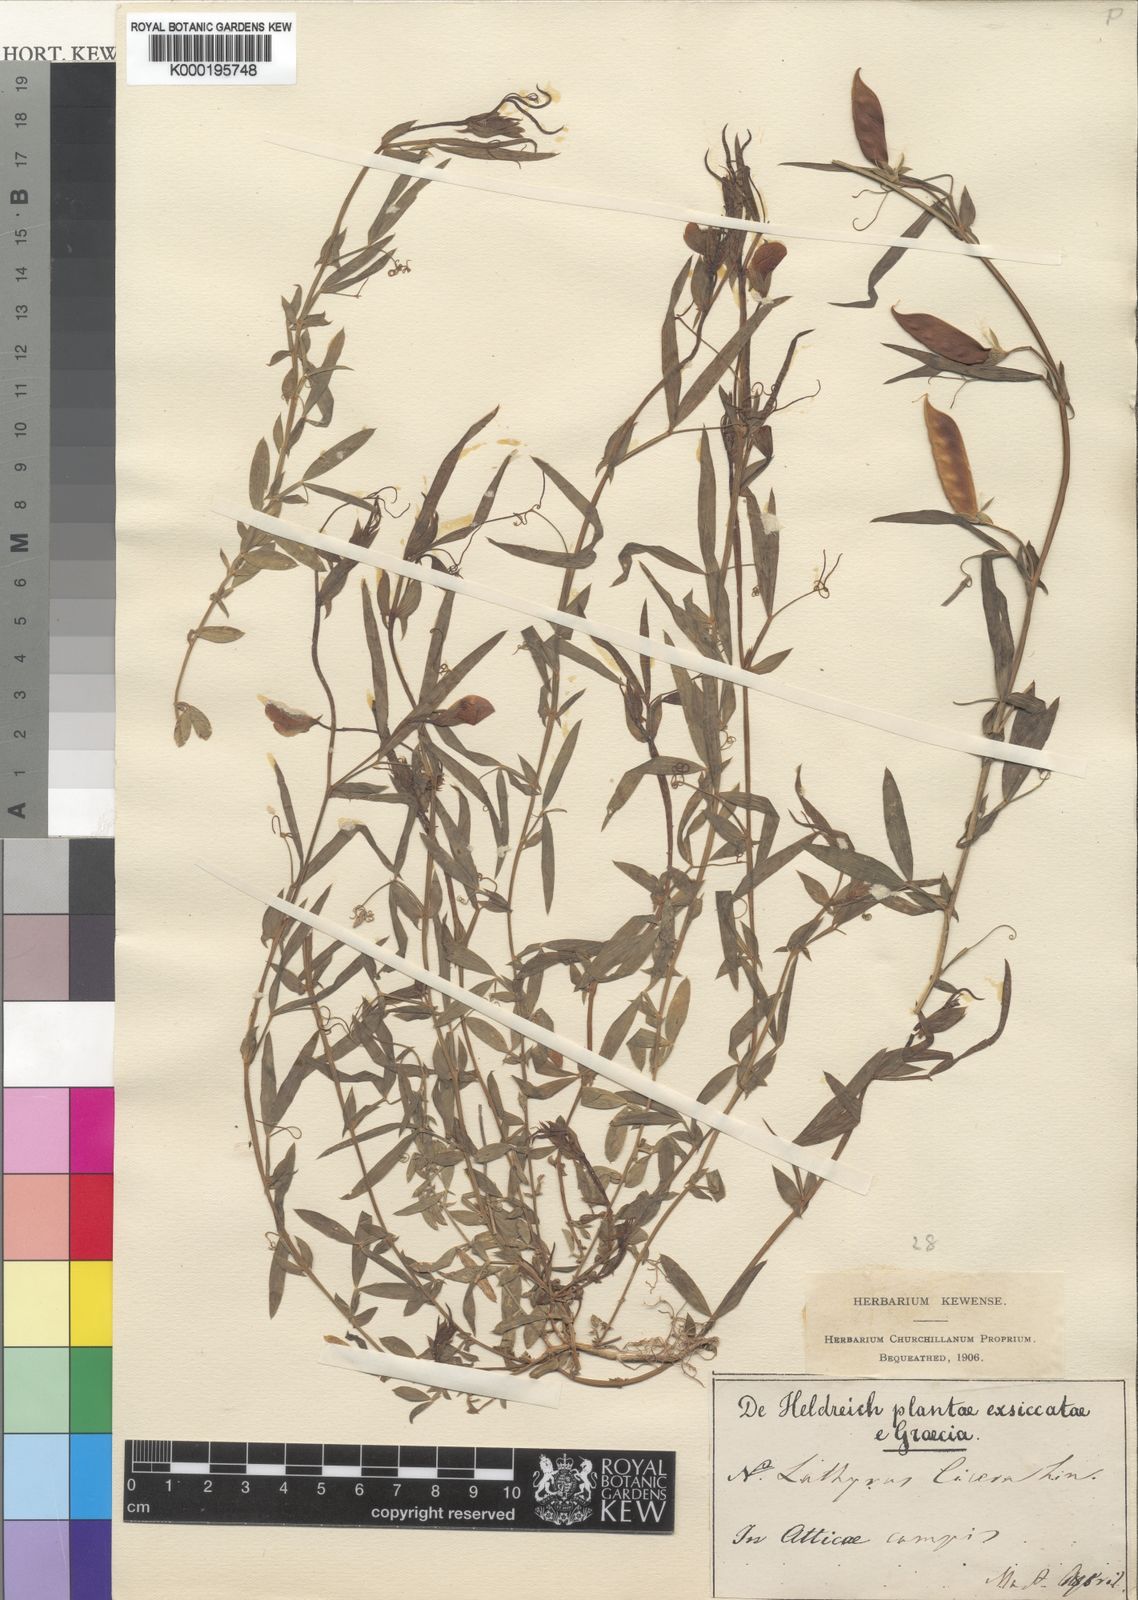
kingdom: Plantae
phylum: Tracheophyta
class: Magnoliopsida
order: Fabales
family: Fabaceae
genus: Lathyrus
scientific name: Lathyrus cicera
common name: Red vetchling
